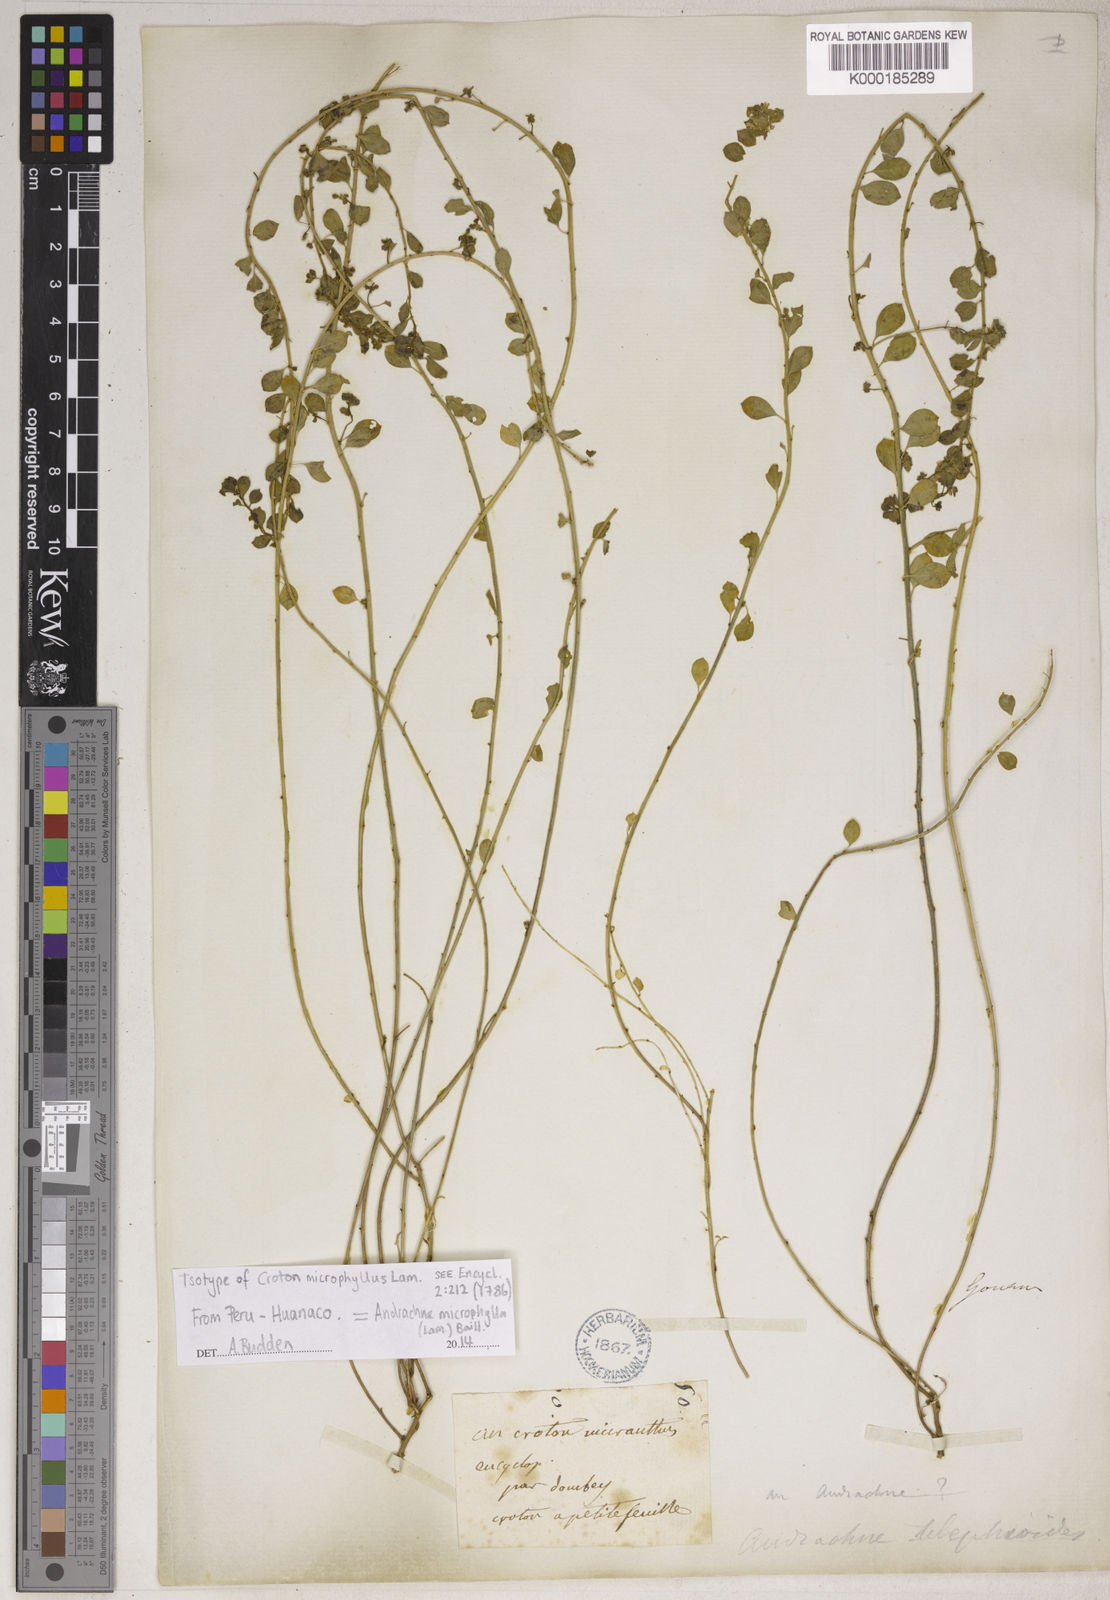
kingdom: Plantae
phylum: Tracheophyta
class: Magnoliopsida
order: Malpighiales
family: Phyllanthaceae
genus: Andrachne
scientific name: Andrachne telephioides
